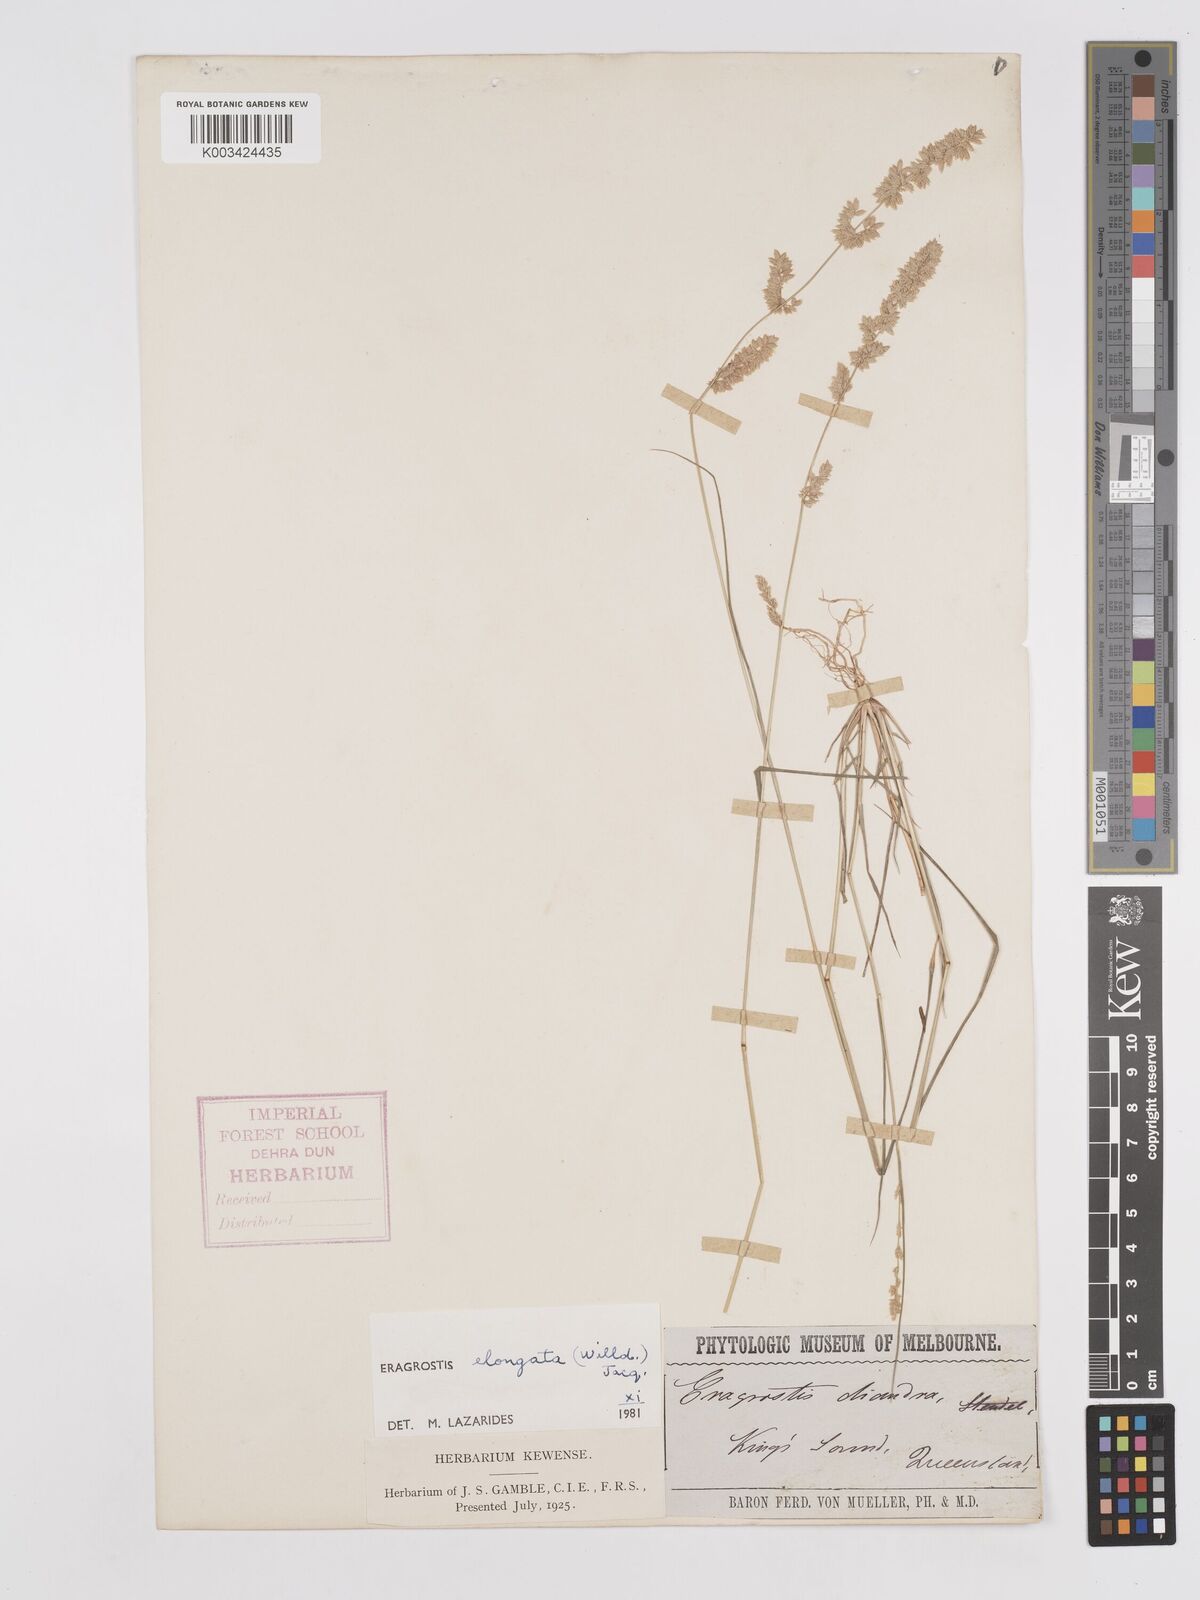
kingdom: Plantae
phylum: Tracheophyta
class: Liliopsida
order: Poales
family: Poaceae
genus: Eragrostis
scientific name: Eragrostis elongata
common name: Long lovegrass
